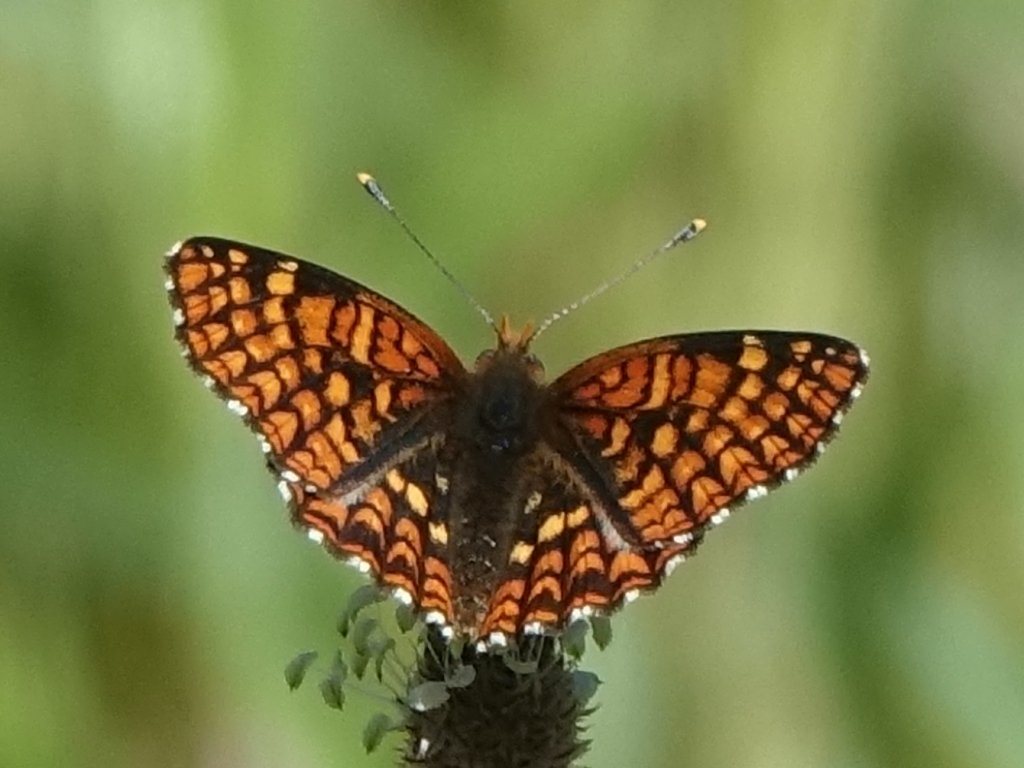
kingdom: Animalia
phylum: Arthropoda
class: Insecta
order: Lepidoptera
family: Nymphalidae
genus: Chlosyne
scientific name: Chlosyne palla
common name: Northern Checkerspot
